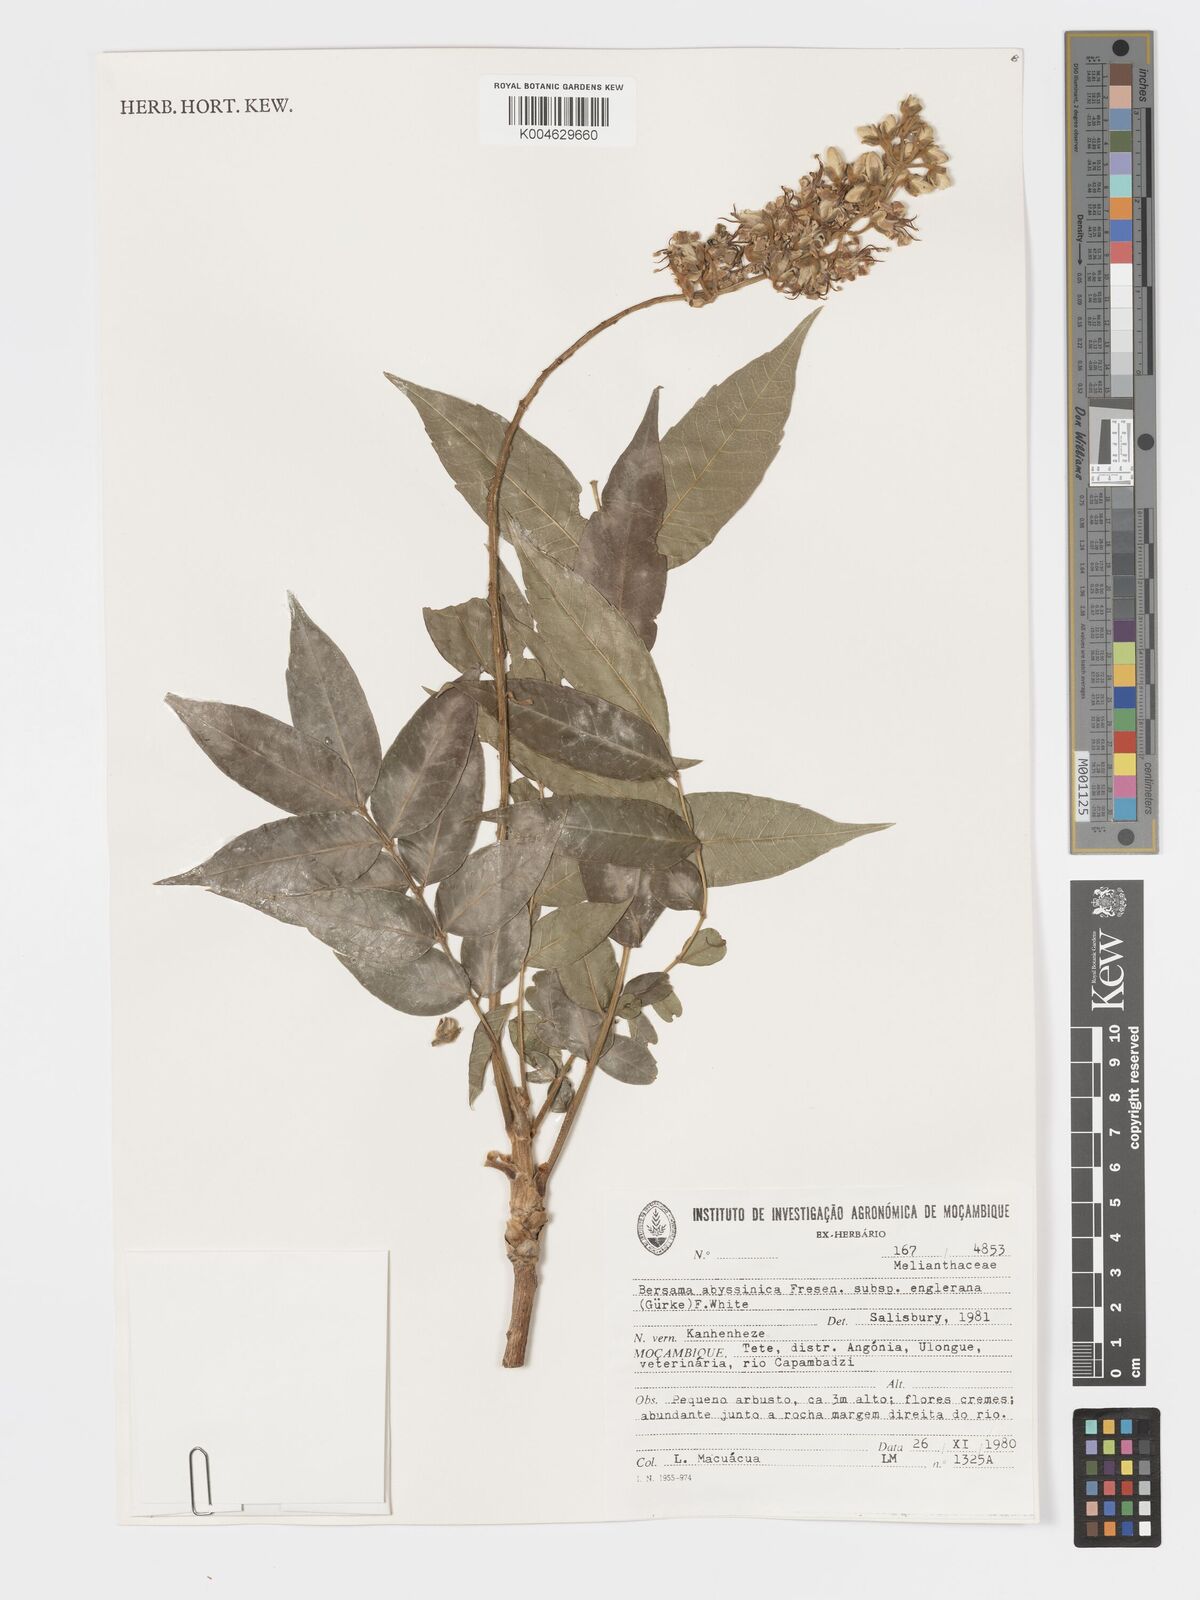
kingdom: Plantae
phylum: Tracheophyta
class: Magnoliopsida
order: Geraniales
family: Melianthaceae
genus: Bersama
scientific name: Bersama abyssinica
